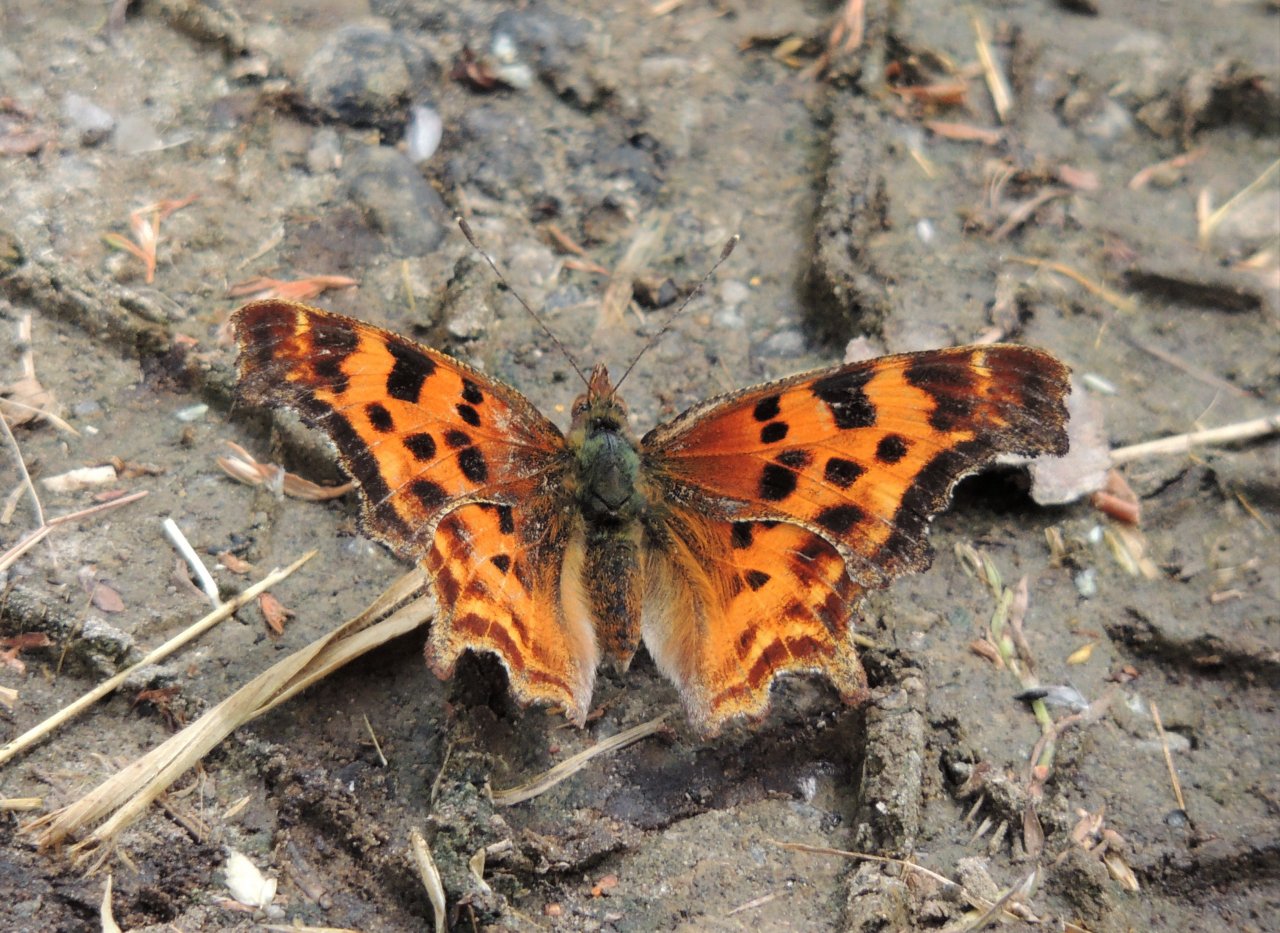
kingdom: Animalia
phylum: Arthropoda
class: Insecta
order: Lepidoptera
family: Nymphalidae
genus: Polygonia
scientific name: Polygonia satyrus
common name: Satyr Comma
